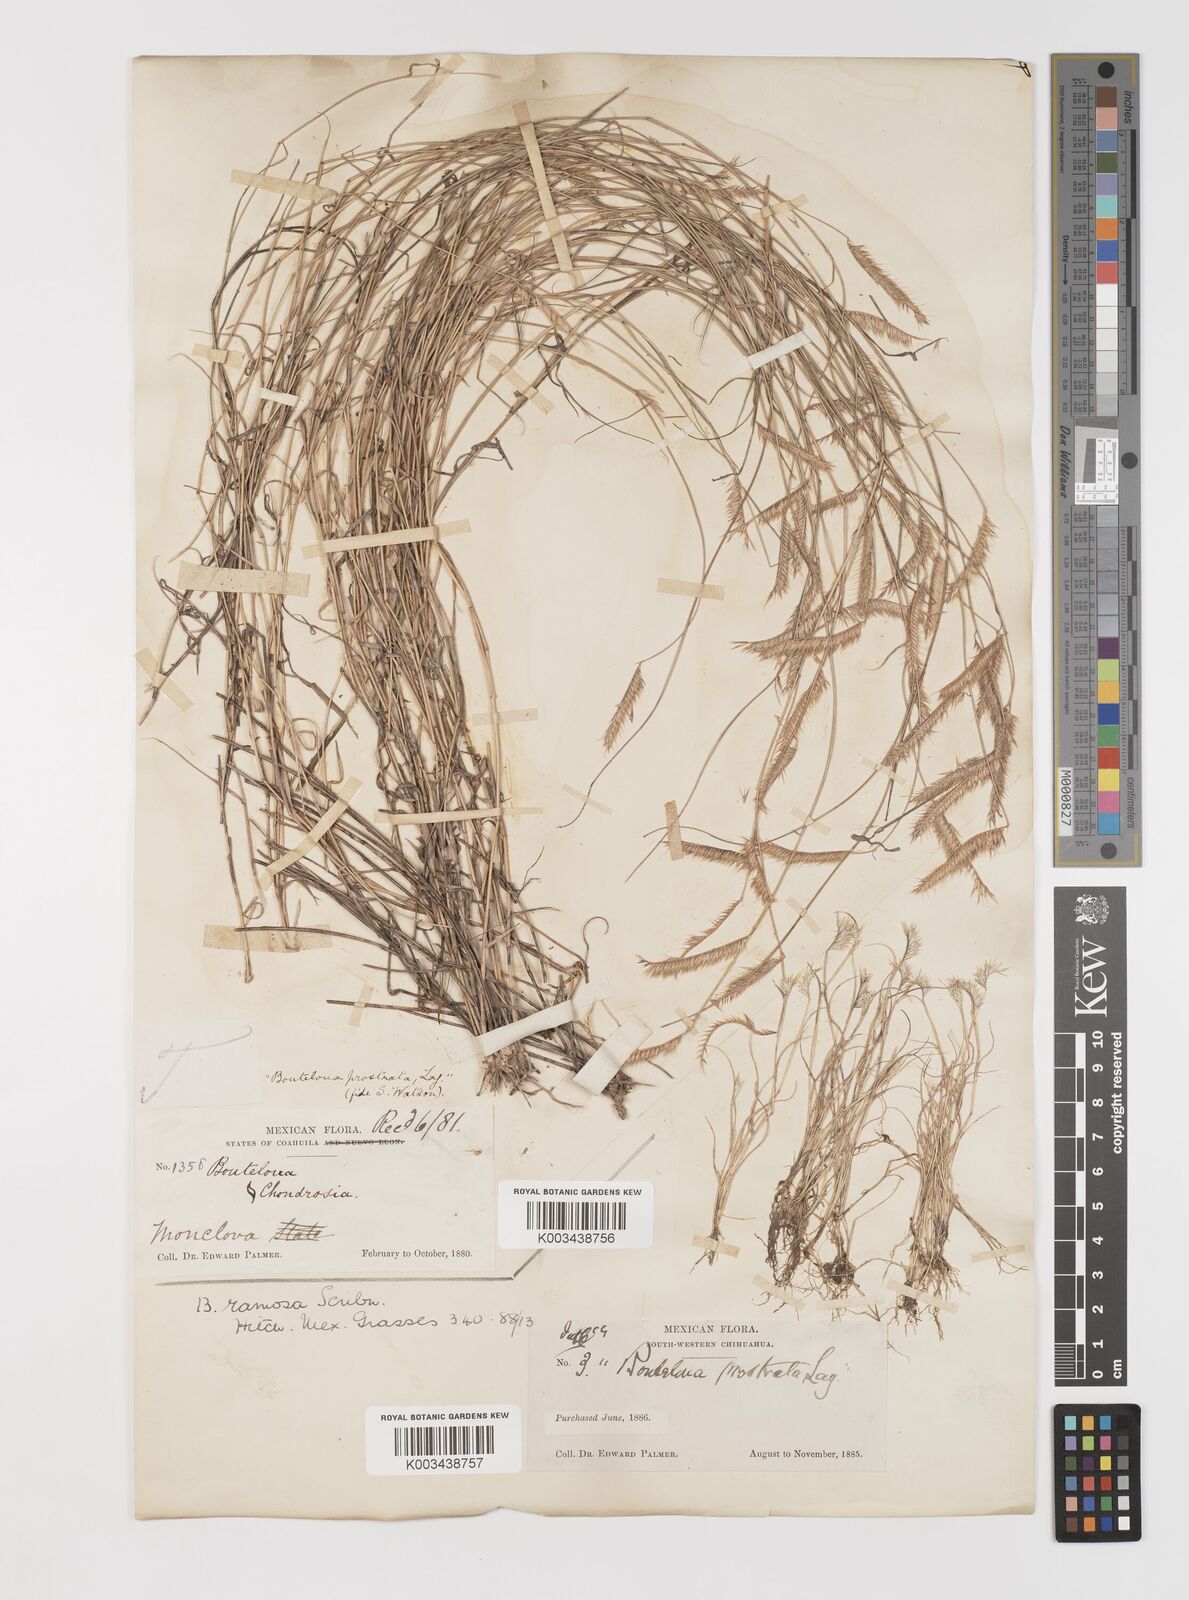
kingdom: Plantae
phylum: Tracheophyta
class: Liliopsida
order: Poales
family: Poaceae
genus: Bouteloua
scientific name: Bouteloua
